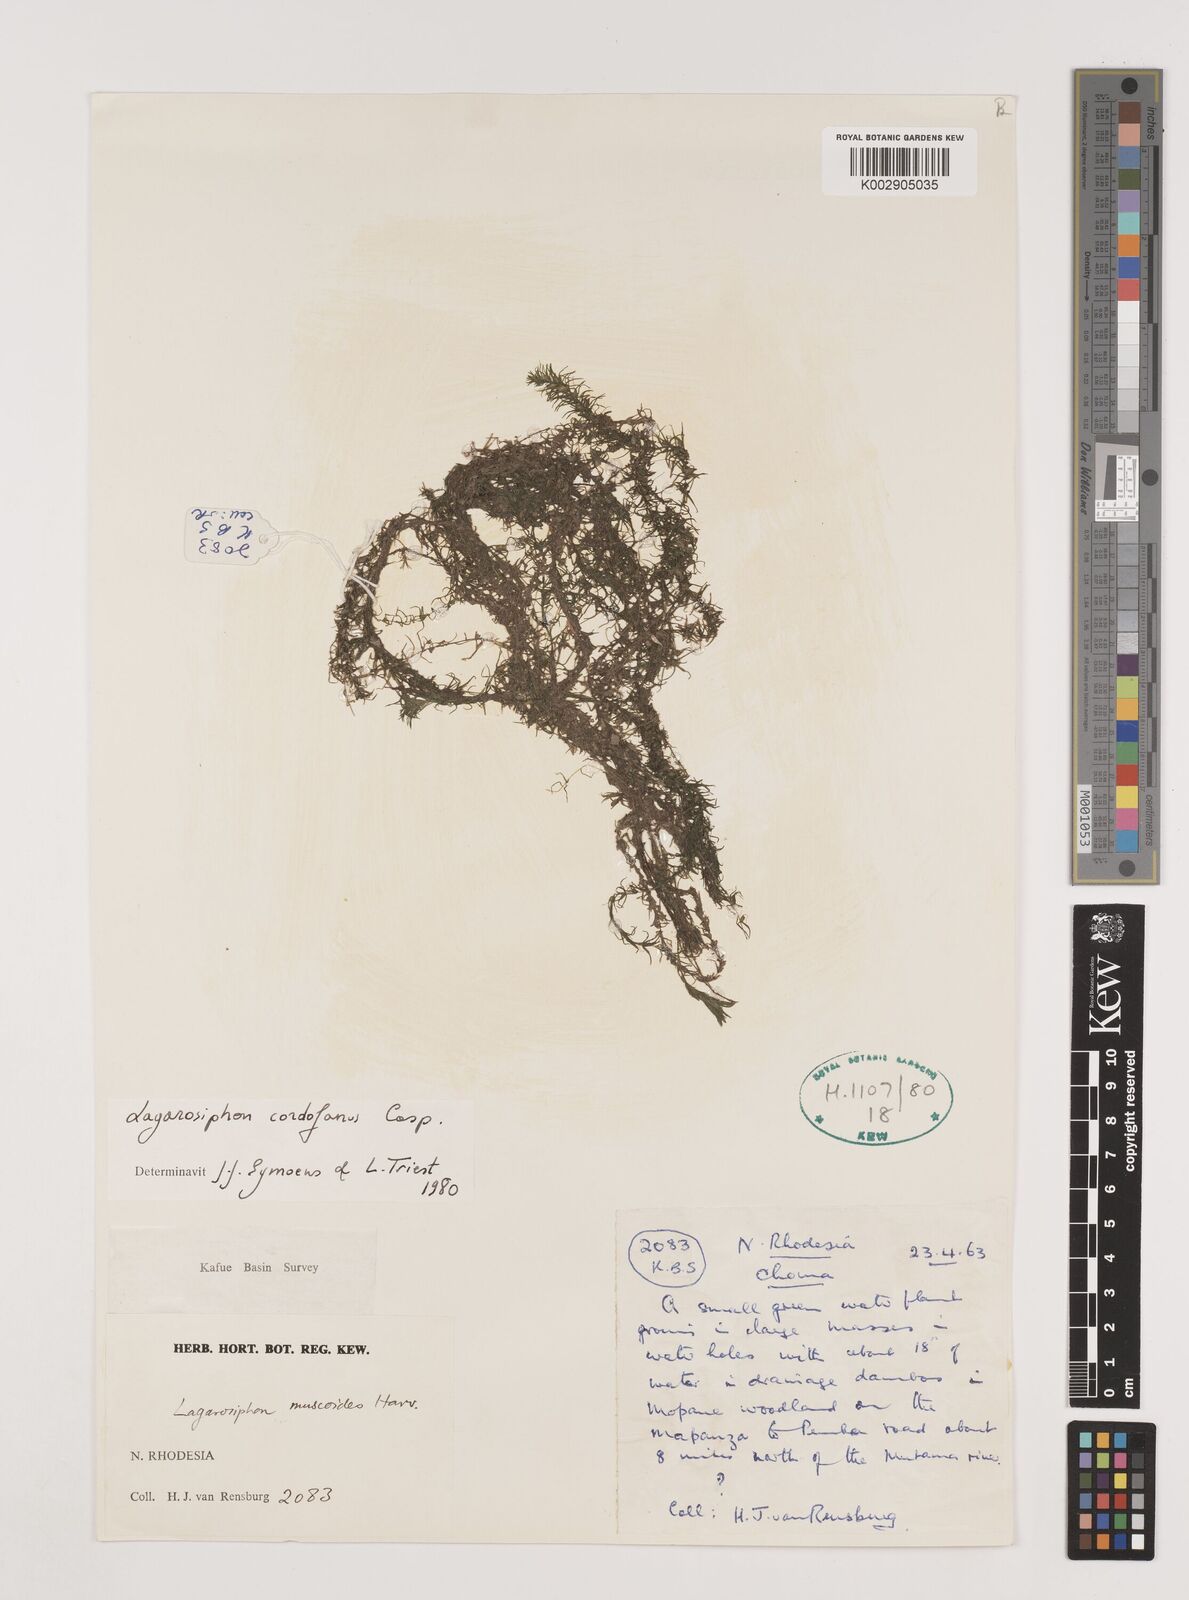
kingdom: Plantae
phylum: Tracheophyta
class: Liliopsida
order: Alismatales
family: Hydrocharitaceae
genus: Lagarosiphon
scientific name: Lagarosiphon cordofanus
